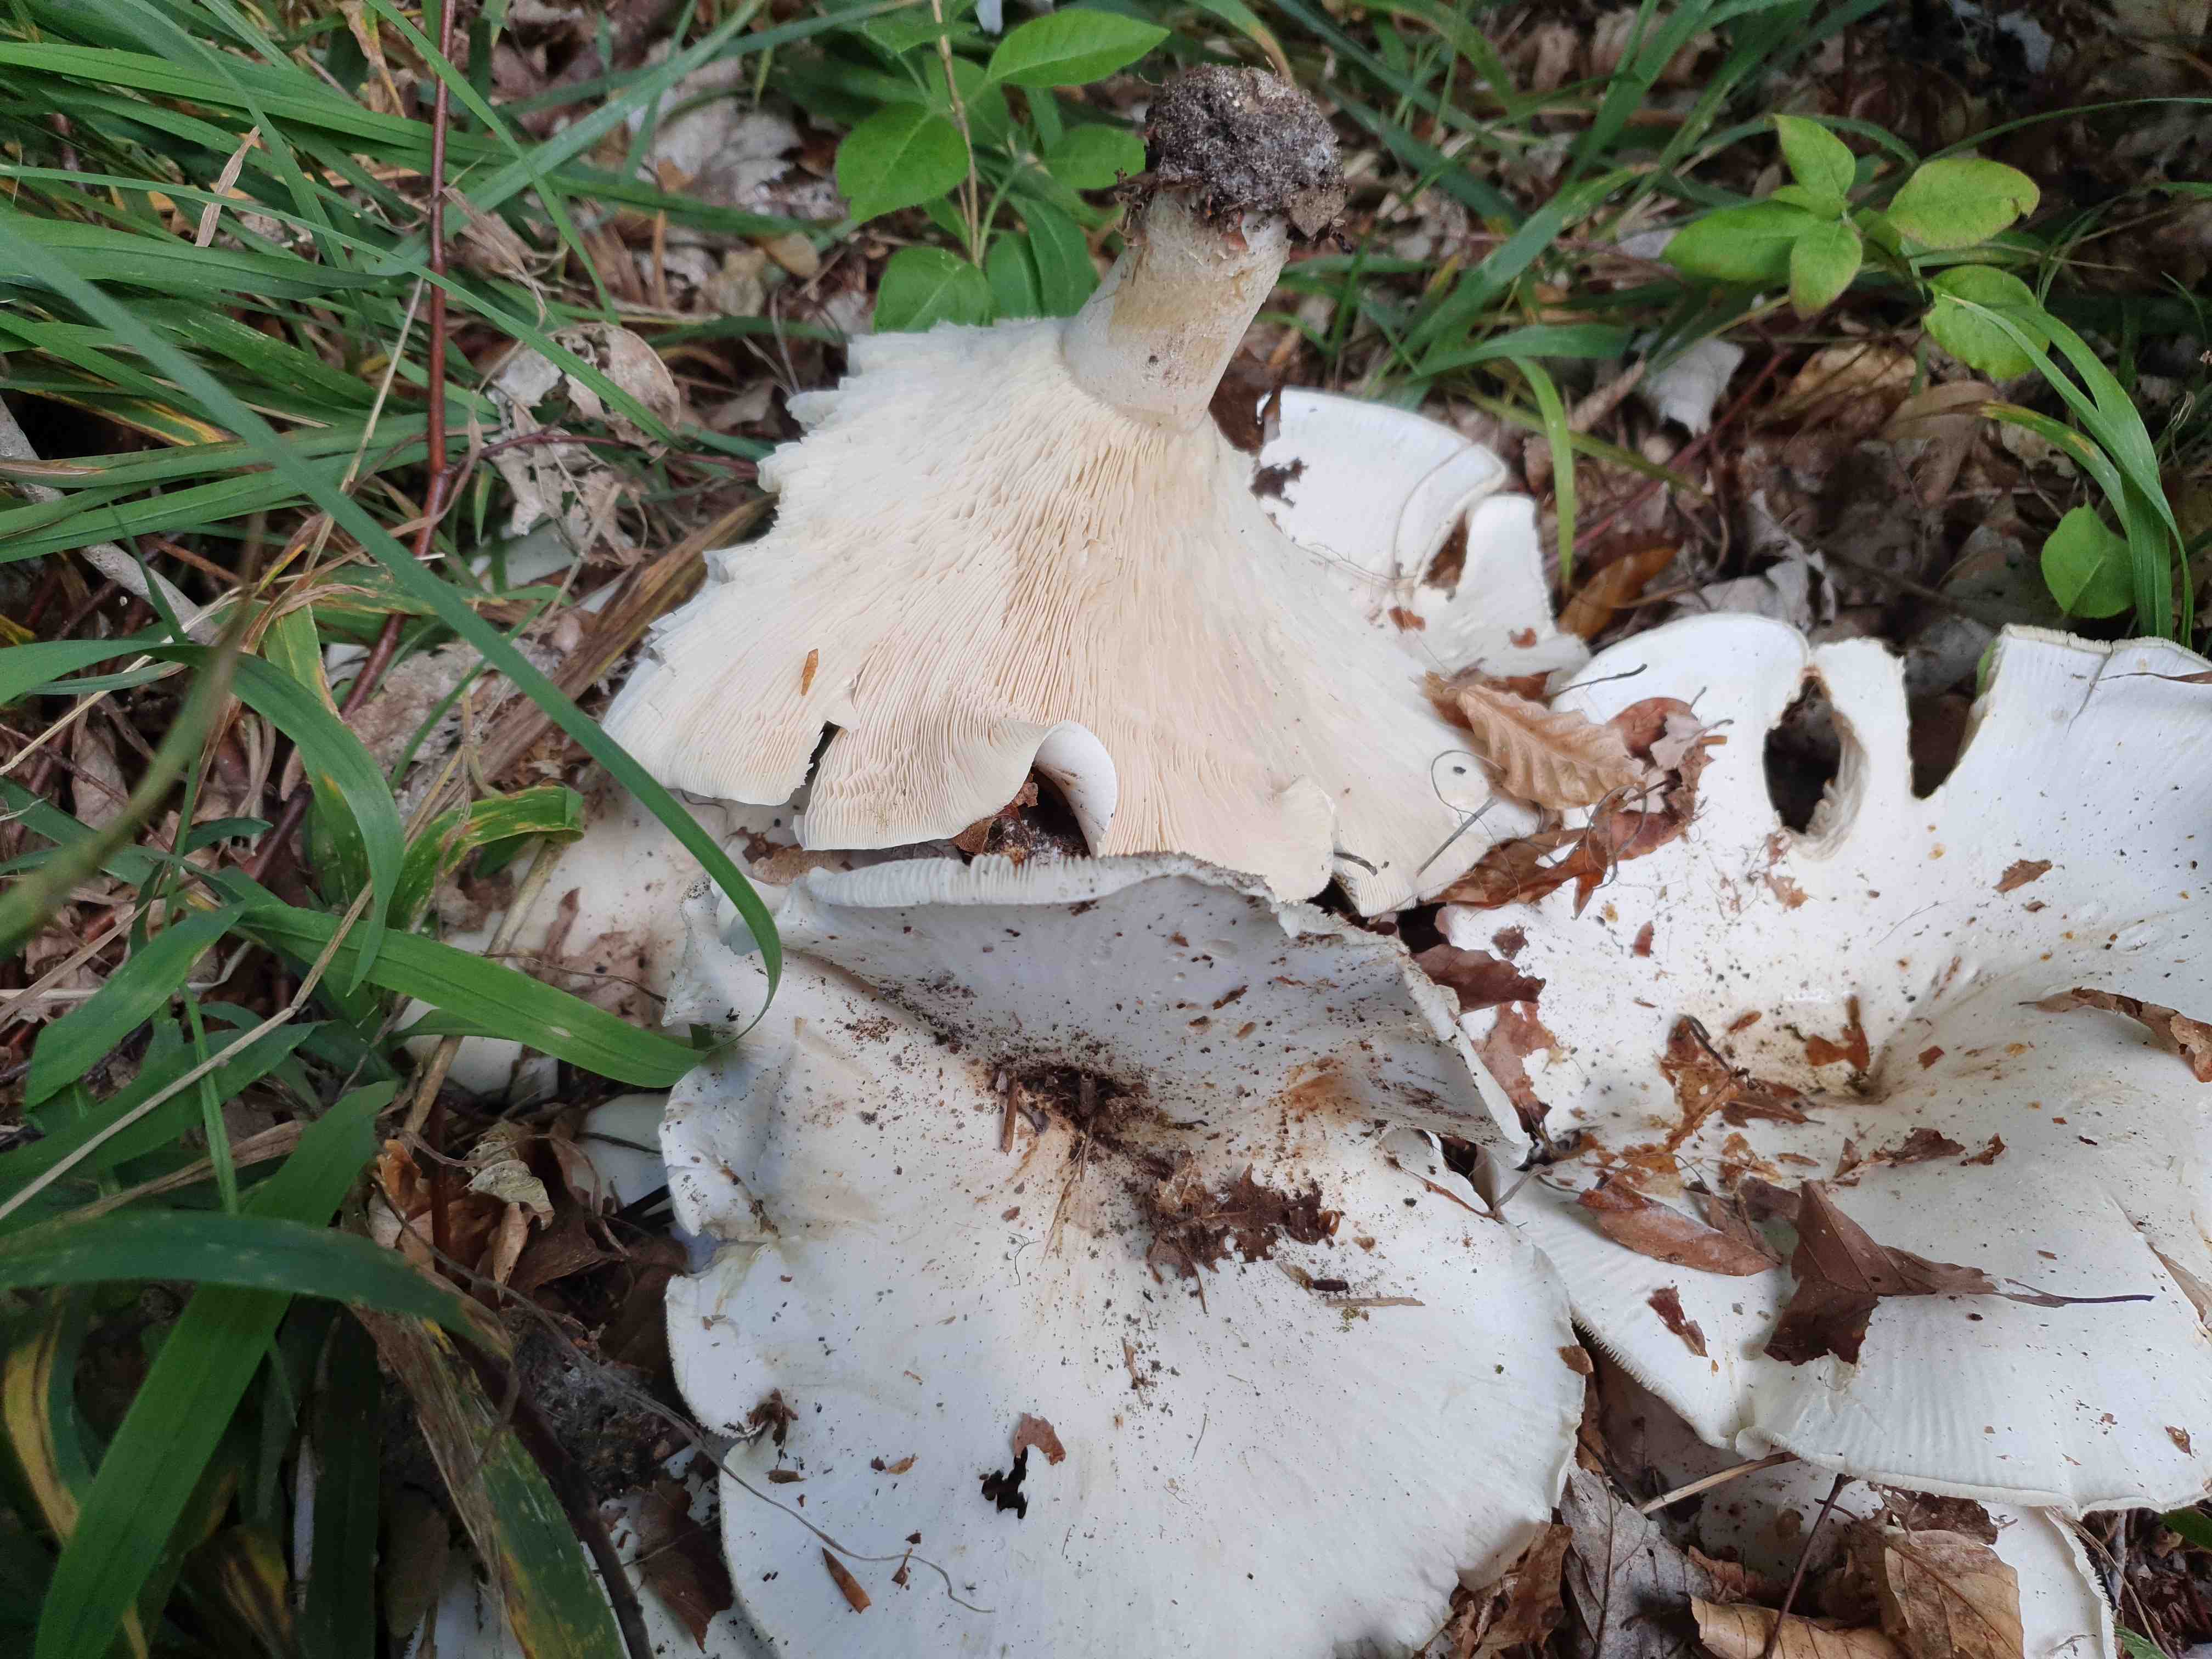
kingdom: Fungi
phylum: Basidiomycota
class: Agaricomycetes
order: Agaricales
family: Tricholomataceae
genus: Aspropaxillus
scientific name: Aspropaxillus giganteus
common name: kæmpe-tragtridderhat
